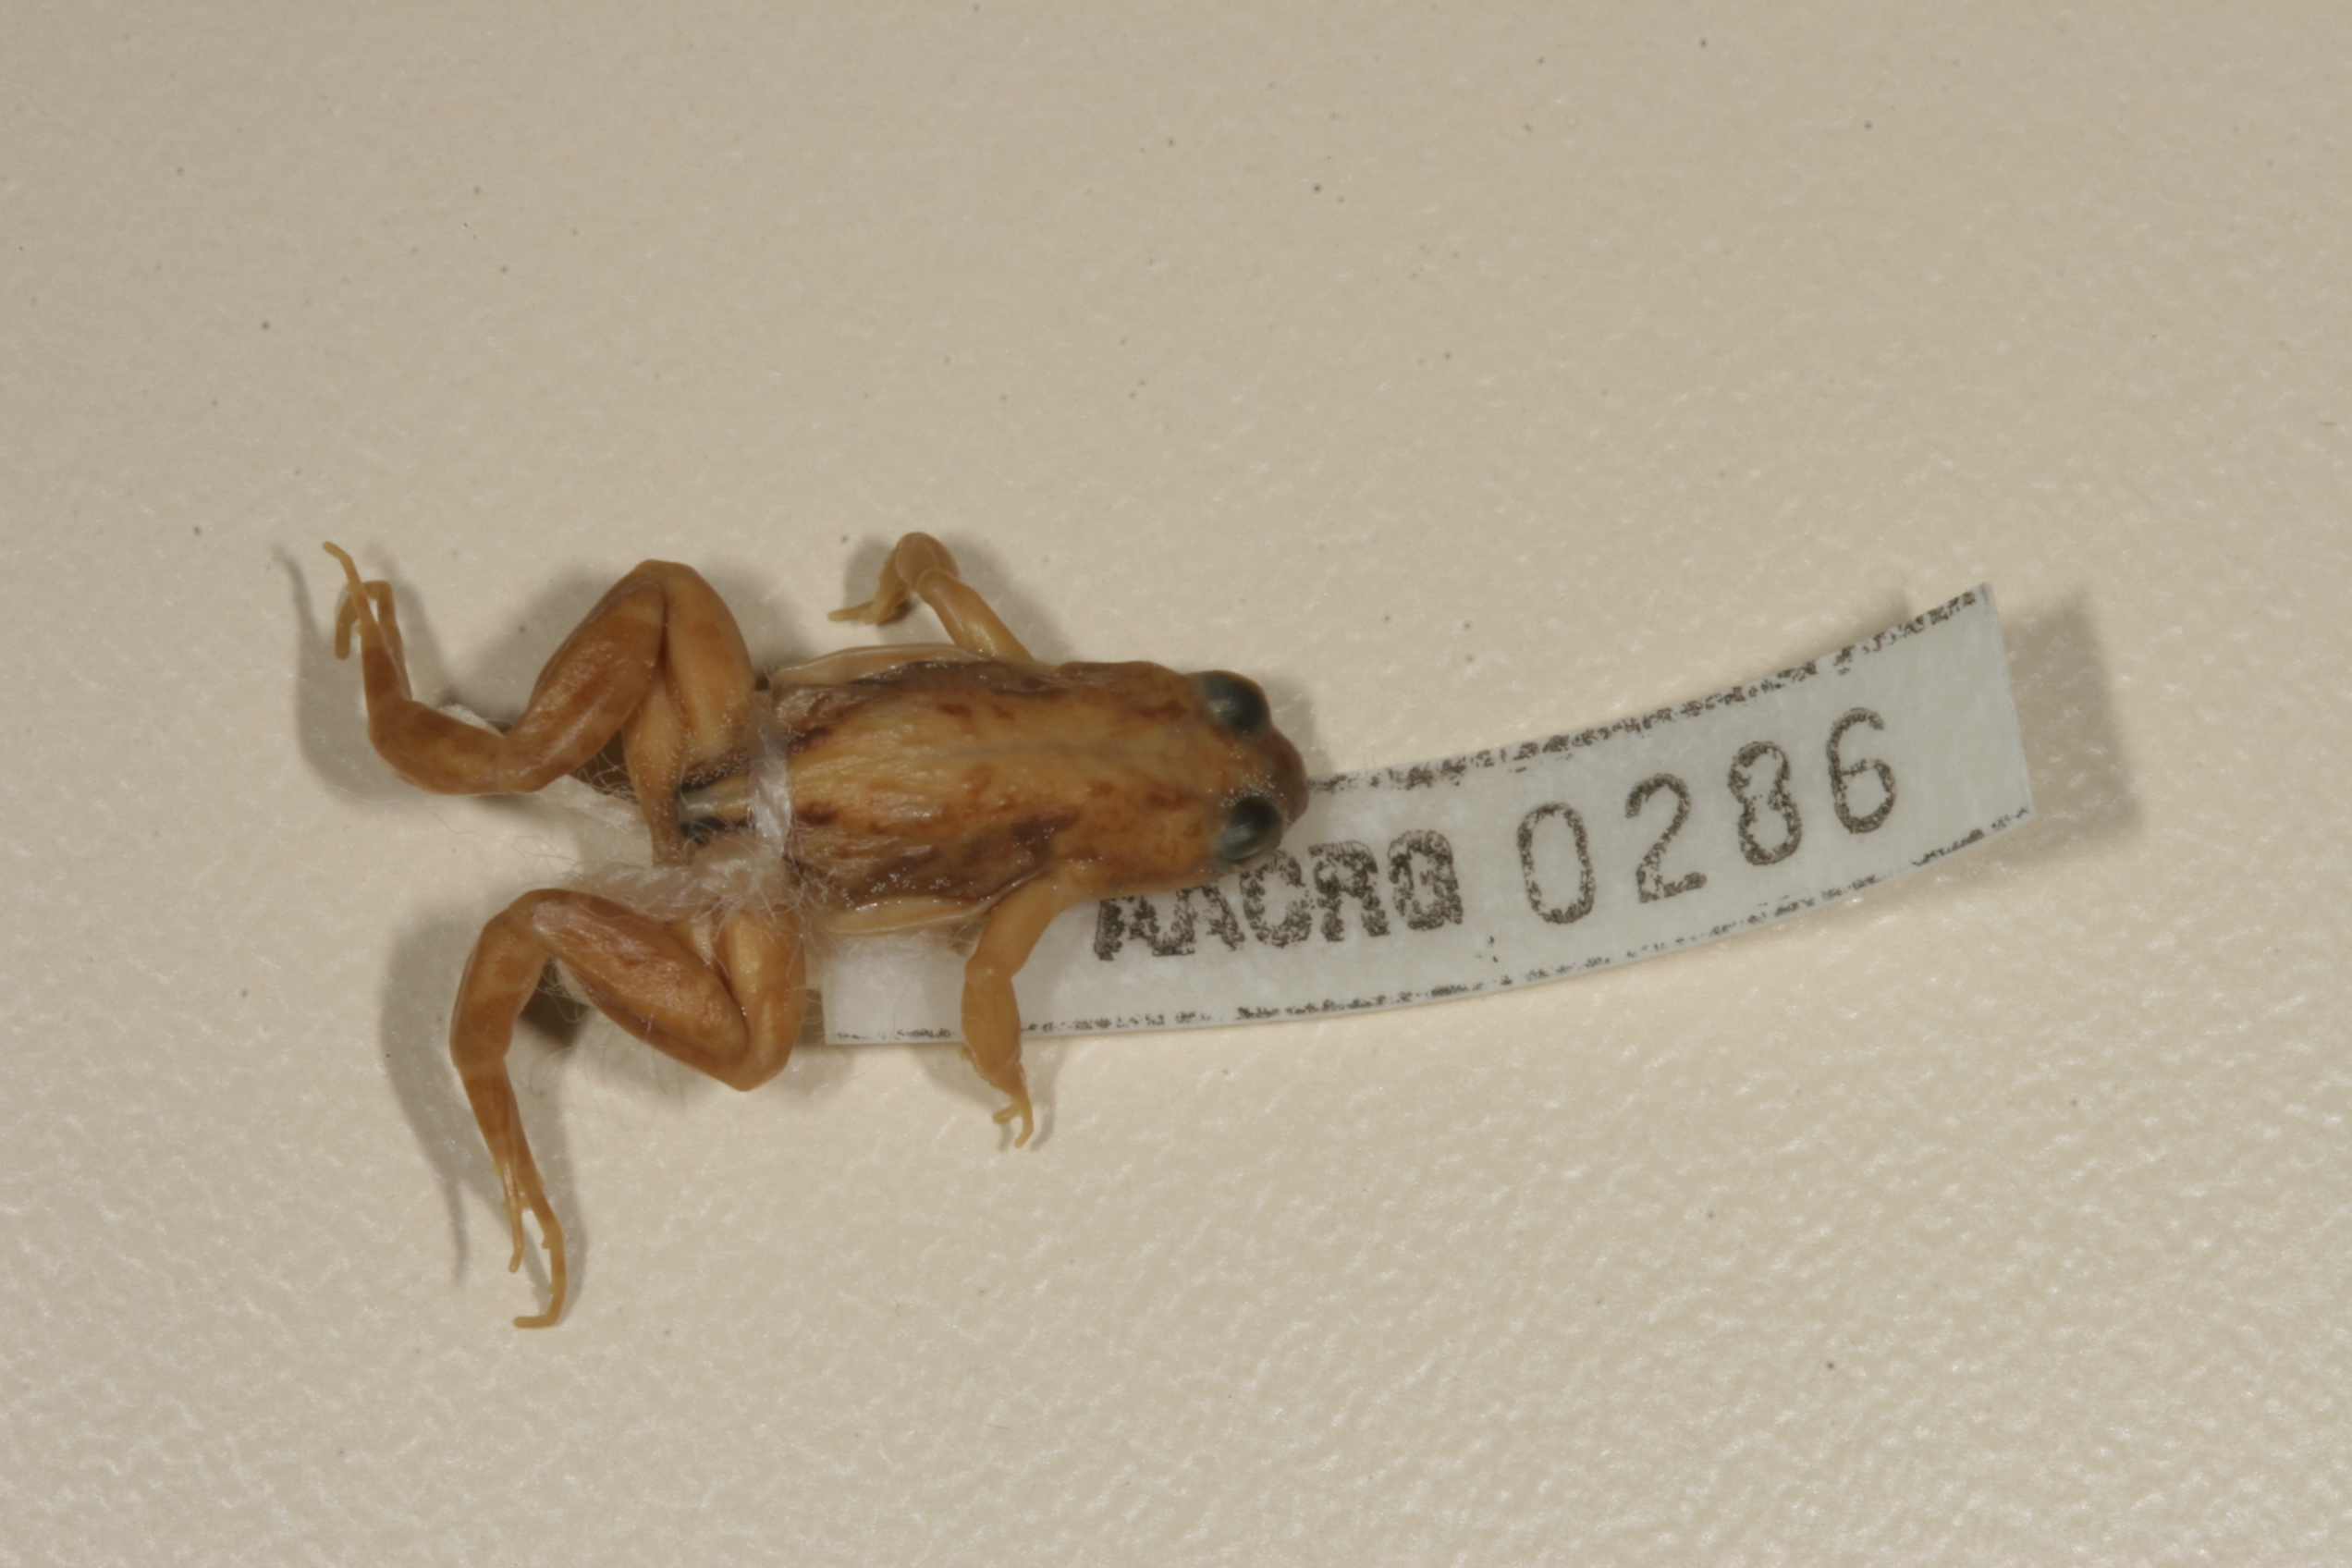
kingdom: Animalia
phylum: Chordata
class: Amphibia
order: Anura
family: Pyxicephalidae
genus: Cacosternum
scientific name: Cacosternum boettgeri
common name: Boettger's frog
